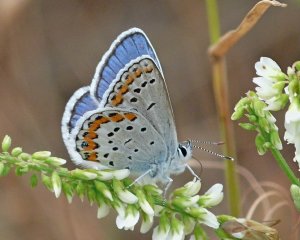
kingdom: Animalia
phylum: Arthropoda
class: Insecta
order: Lepidoptera
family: Lycaenidae
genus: Lycaeides
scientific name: Lycaeides melissa
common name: Melissa Blue
